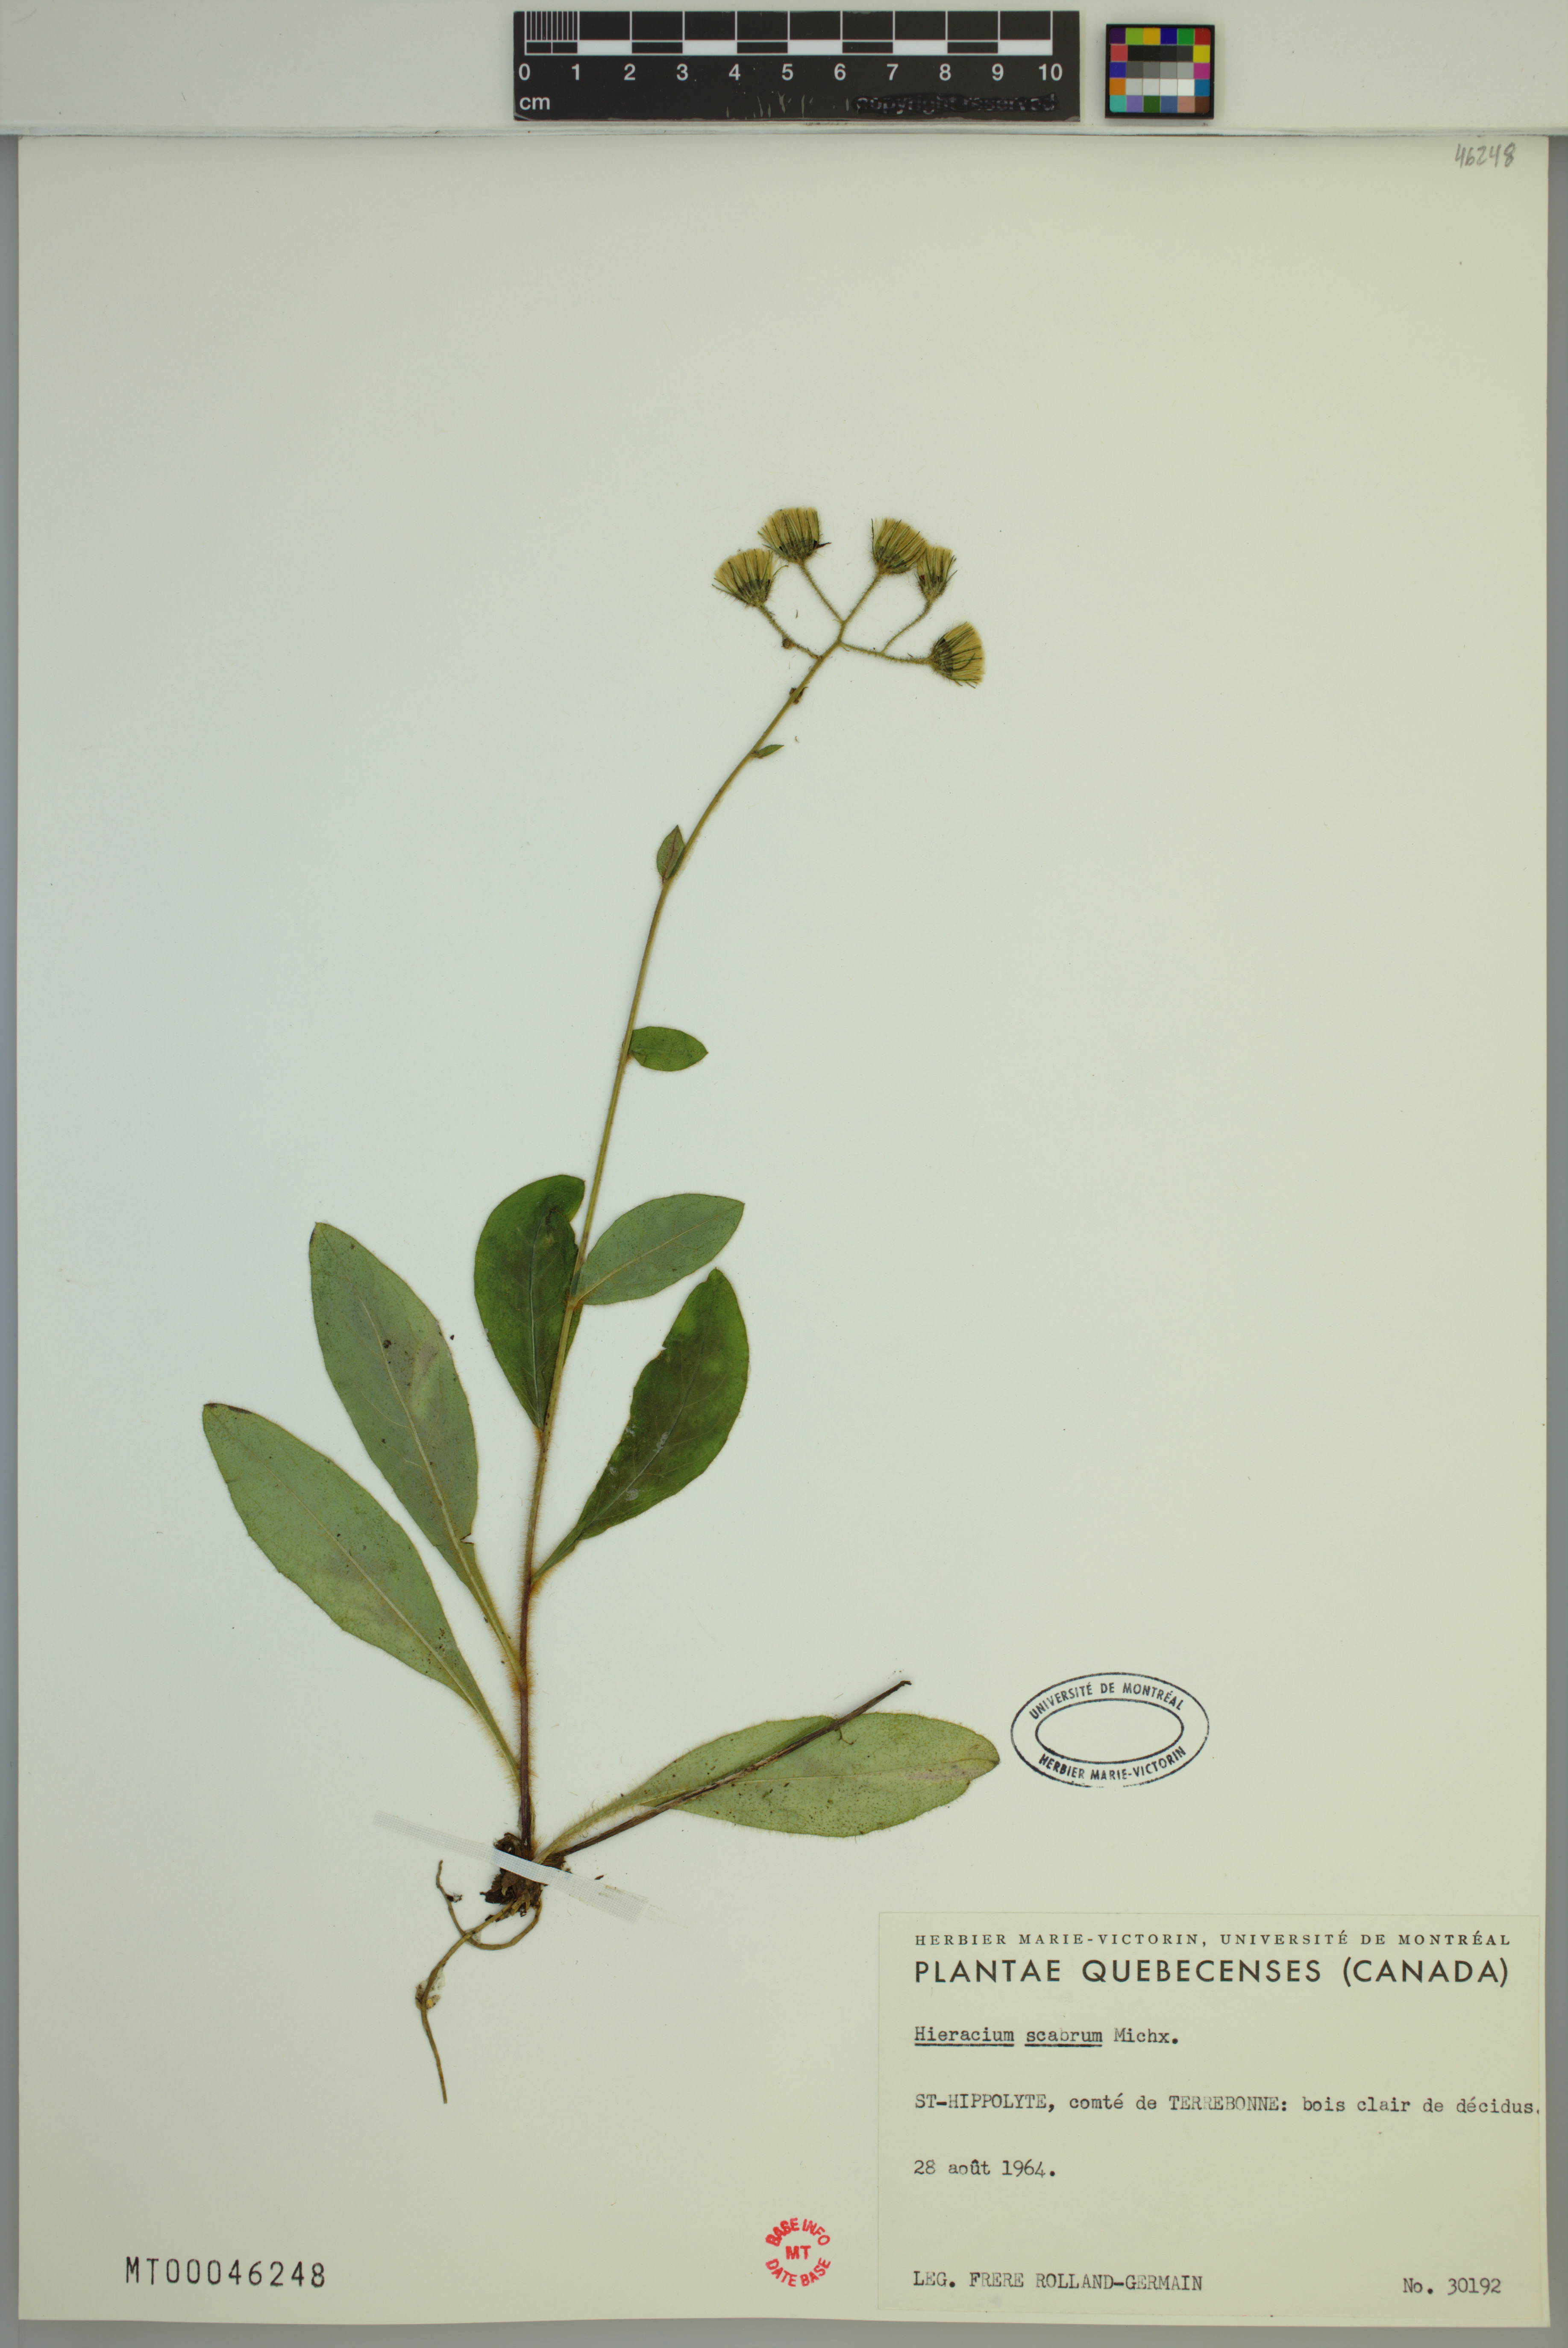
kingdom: Plantae
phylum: Tracheophyta
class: Magnoliopsida
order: Asterales
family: Asteraceae
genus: Hieracium
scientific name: Hieracium scabrum
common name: Rough hawkweed
